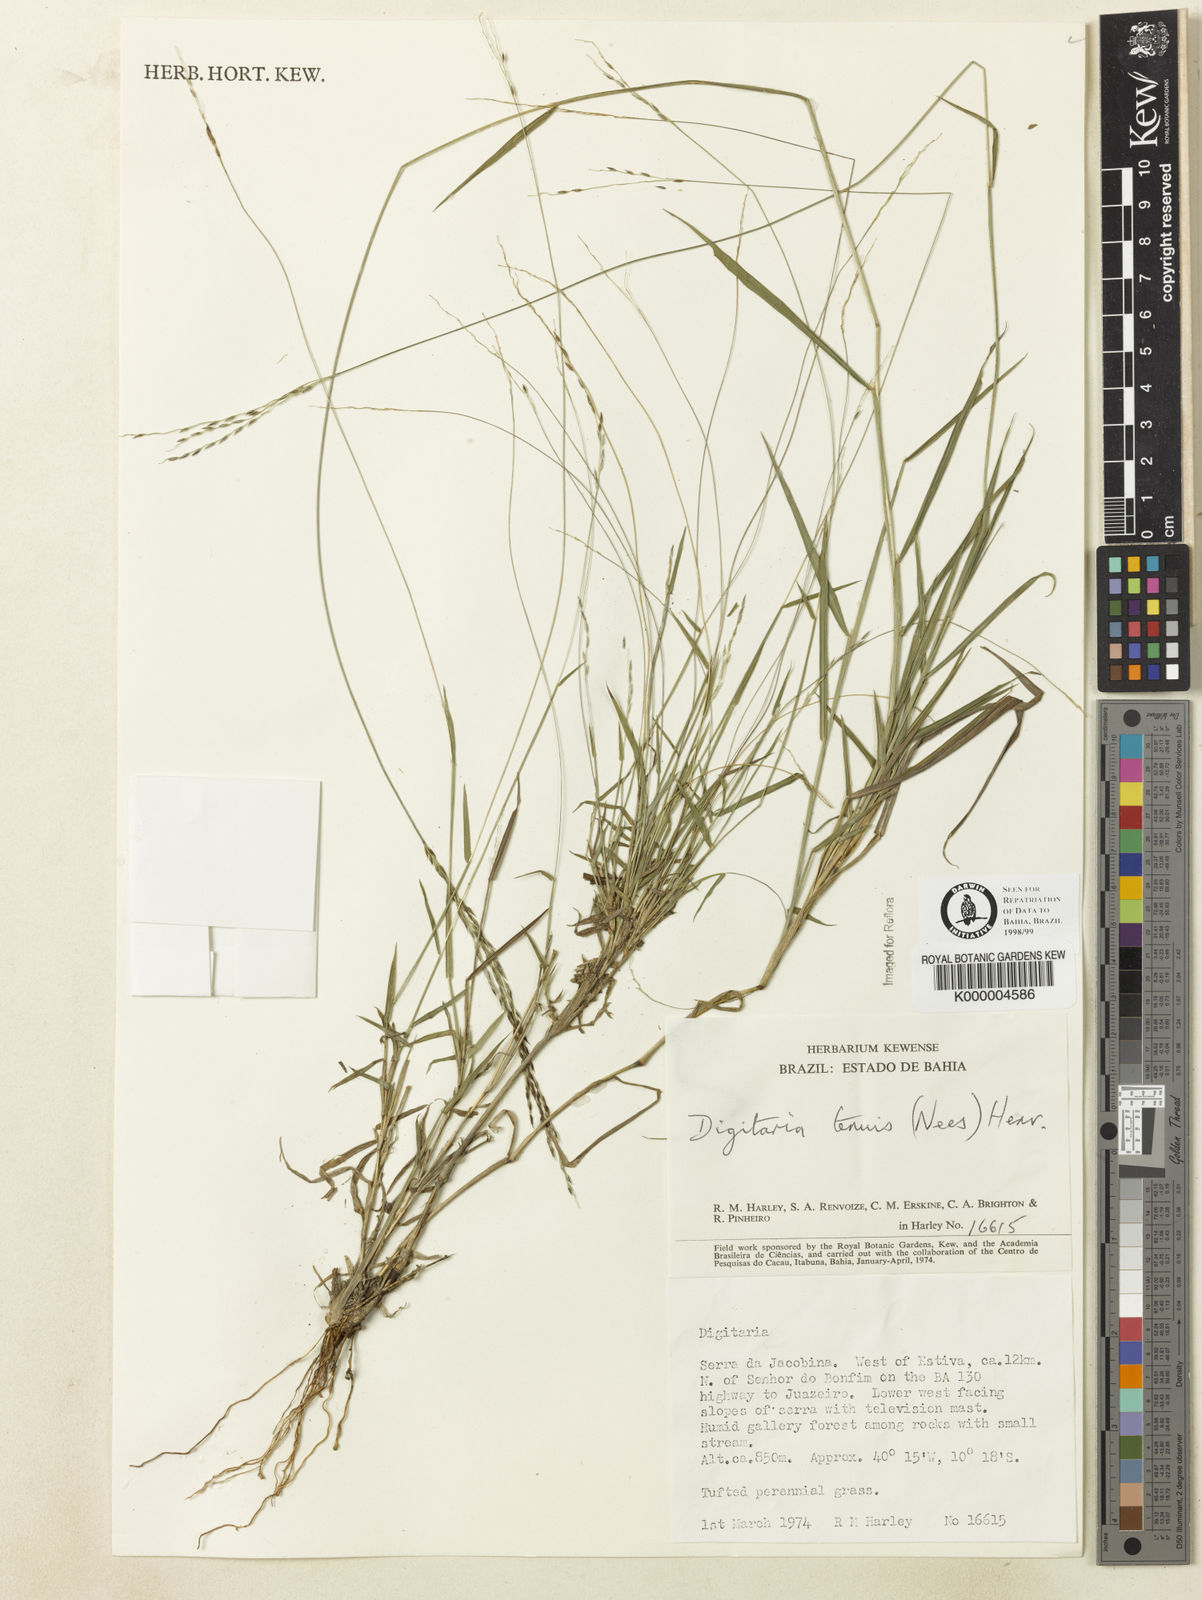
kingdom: Plantae
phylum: Tracheophyta
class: Liliopsida
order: Poales
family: Poaceae
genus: Digitaria
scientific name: Digitaria tenuis
